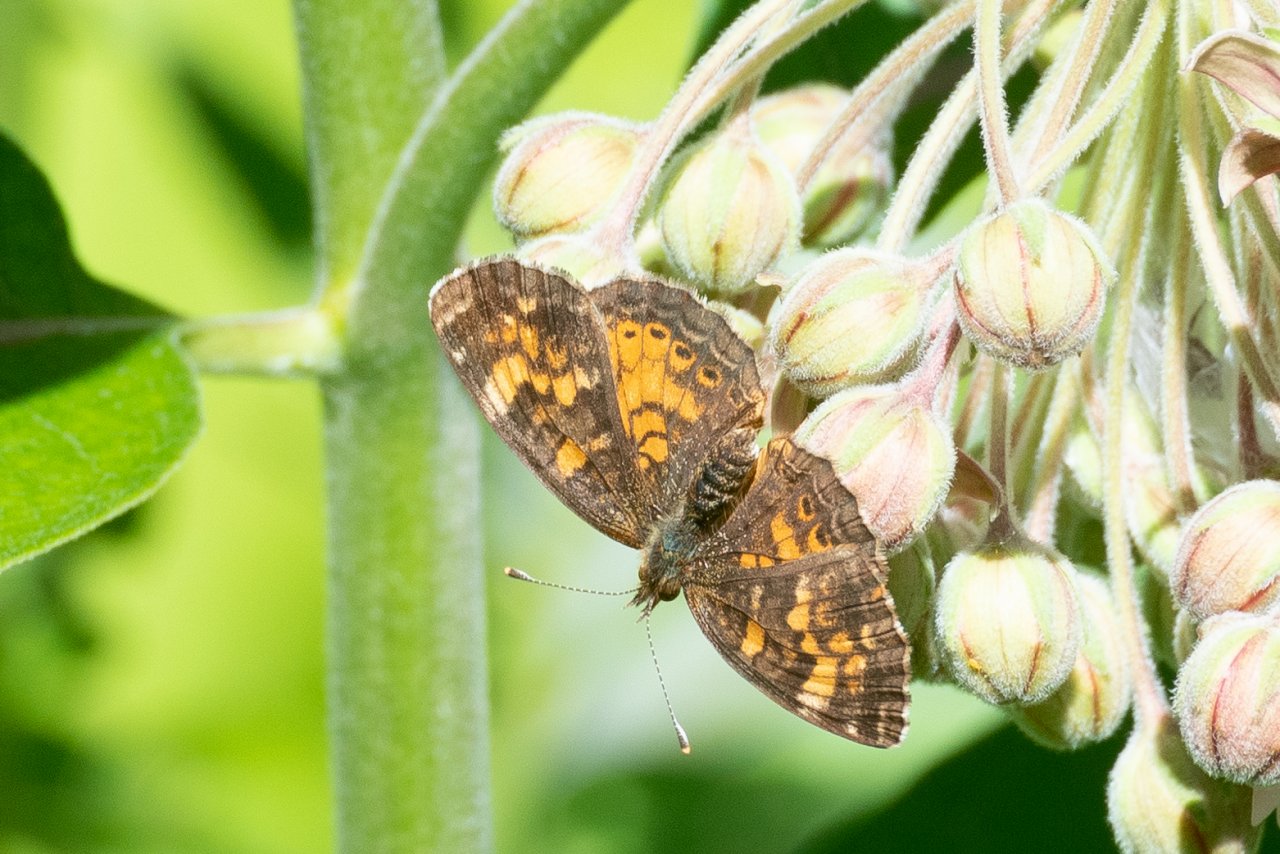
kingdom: Animalia
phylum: Arthropoda
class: Insecta
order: Lepidoptera
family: Nymphalidae
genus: Phyciodes
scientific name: Phyciodes tharos
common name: Northern Crescent
